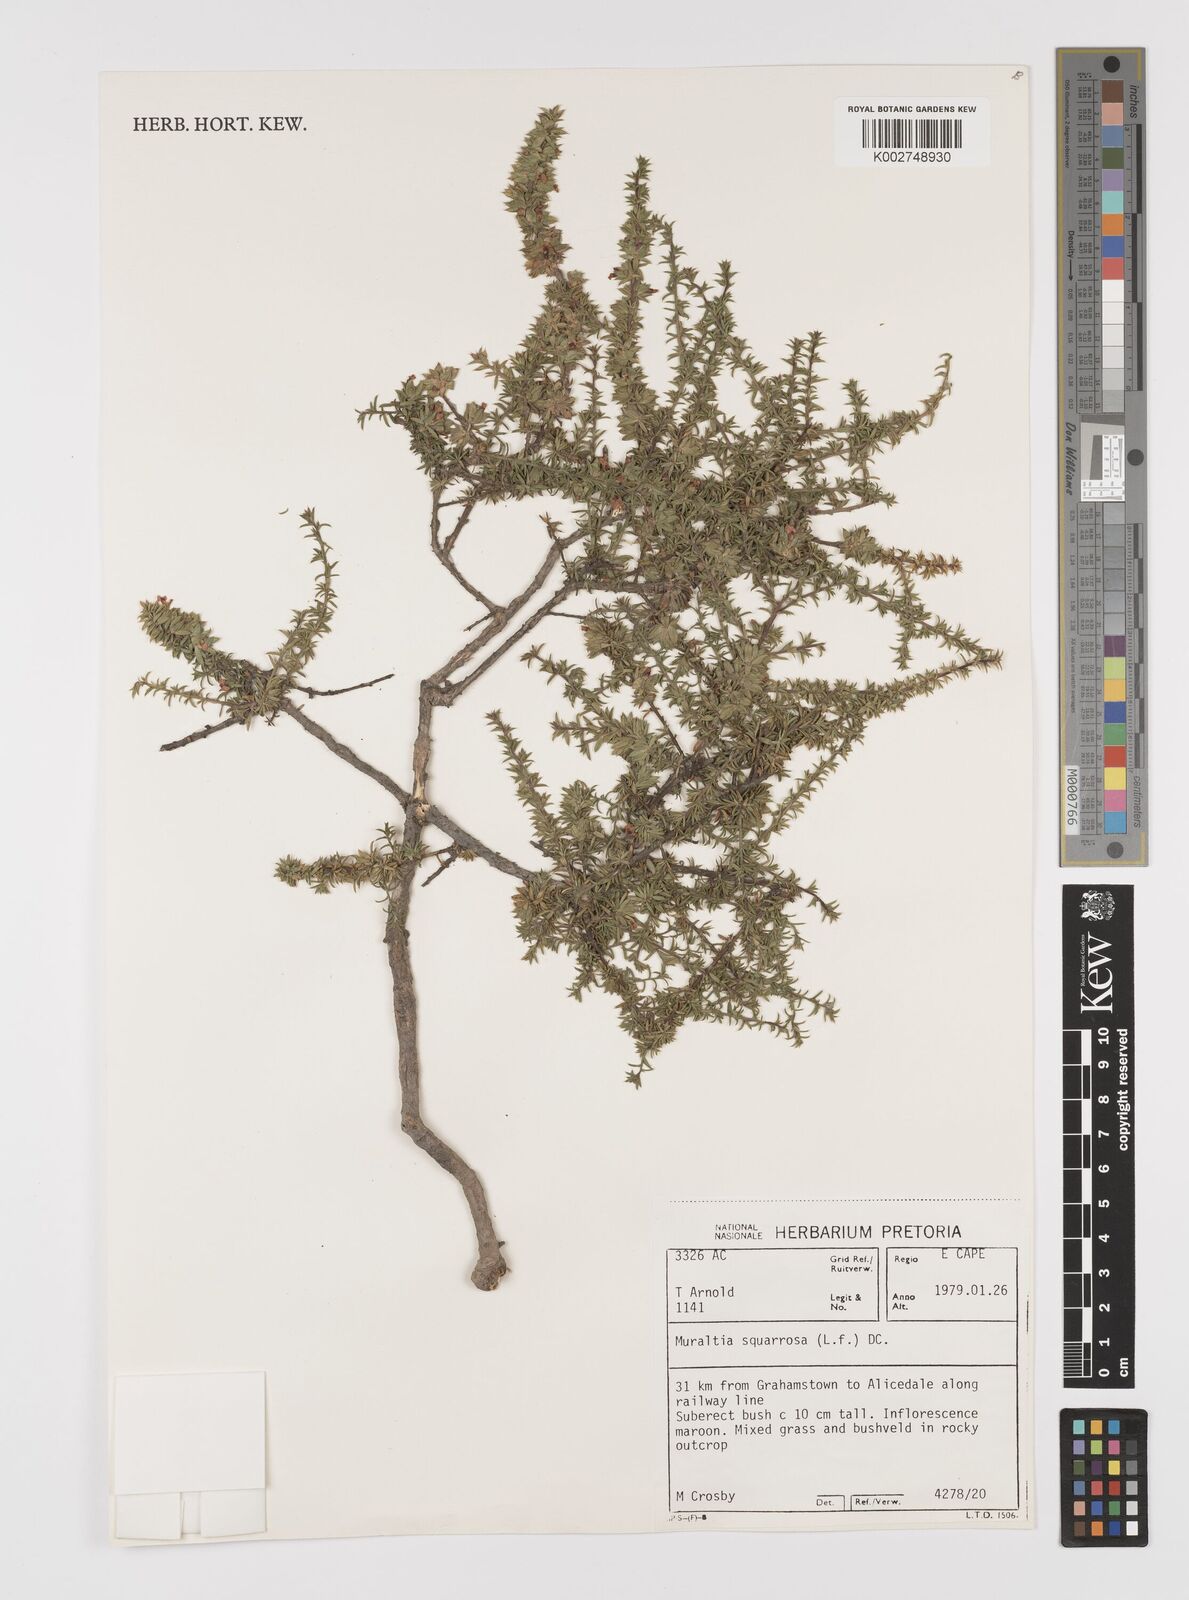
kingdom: Plantae
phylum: Tracheophyta
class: Magnoliopsida
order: Fabales
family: Polygalaceae
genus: Muraltia
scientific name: Muraltia squarrosa
